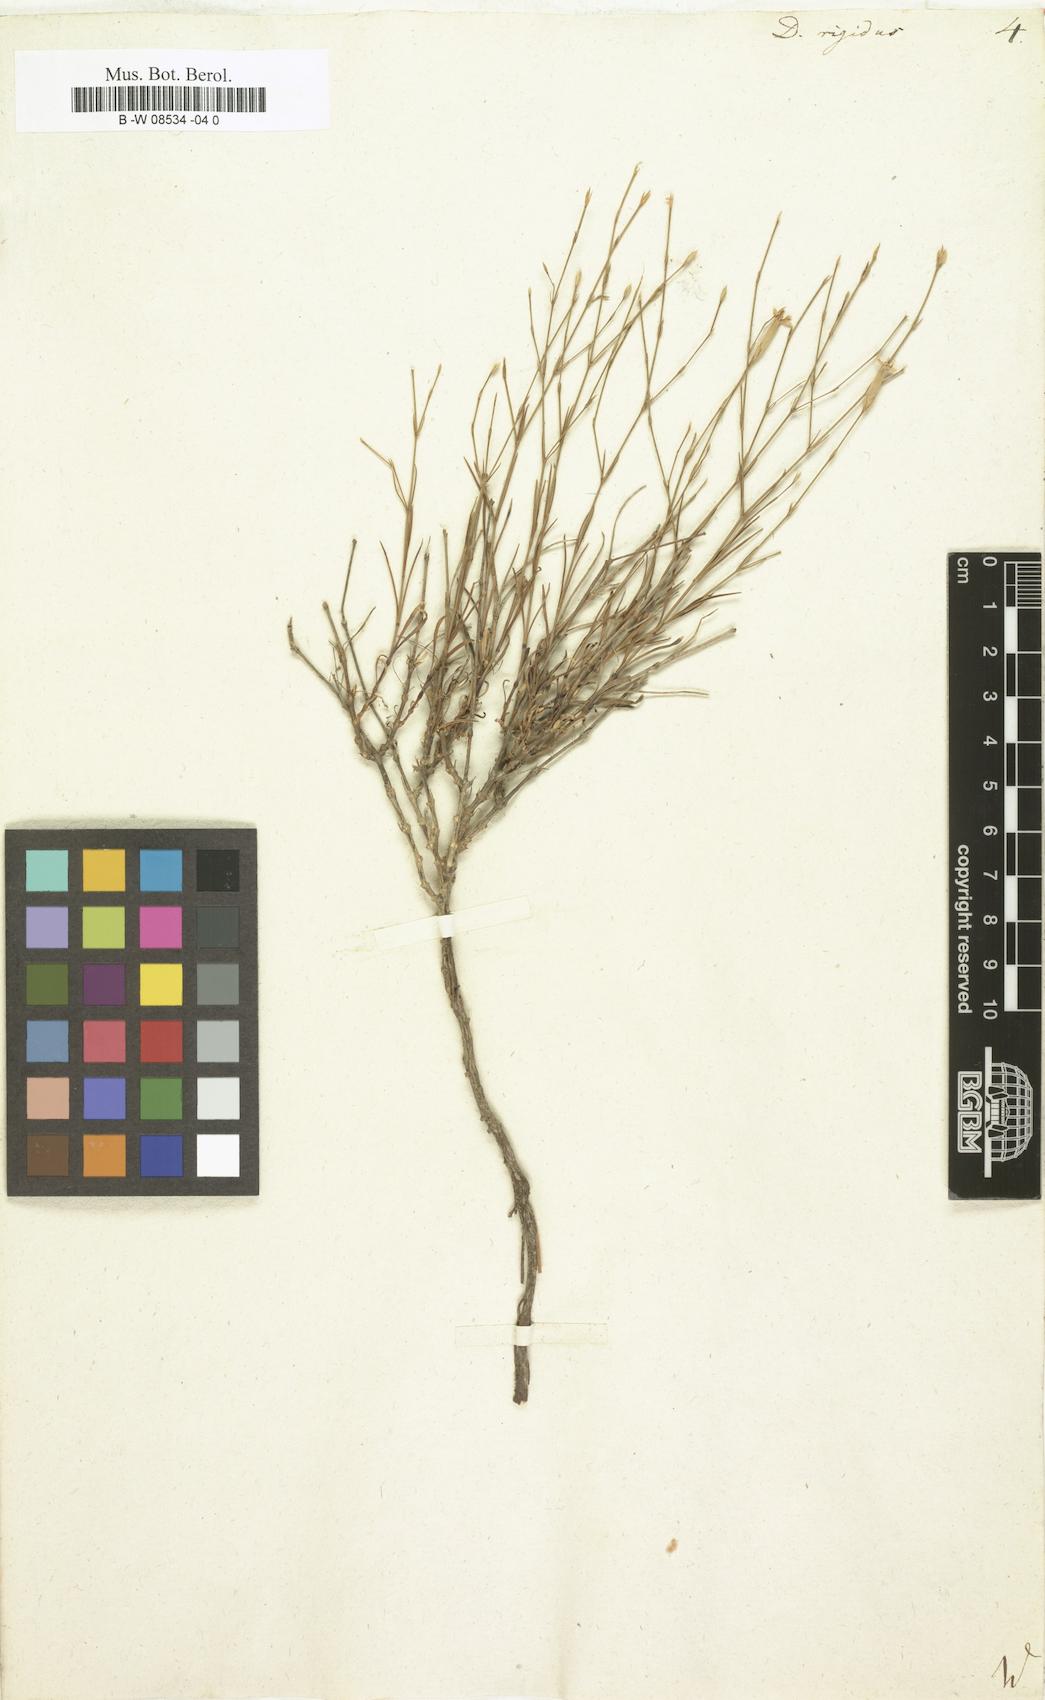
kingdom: Plantae
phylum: Tracheophyta
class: Magnoliopsida
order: Caryophyllales
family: Caryophyllaceae
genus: Dianthus
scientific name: Dianthus rigidus
